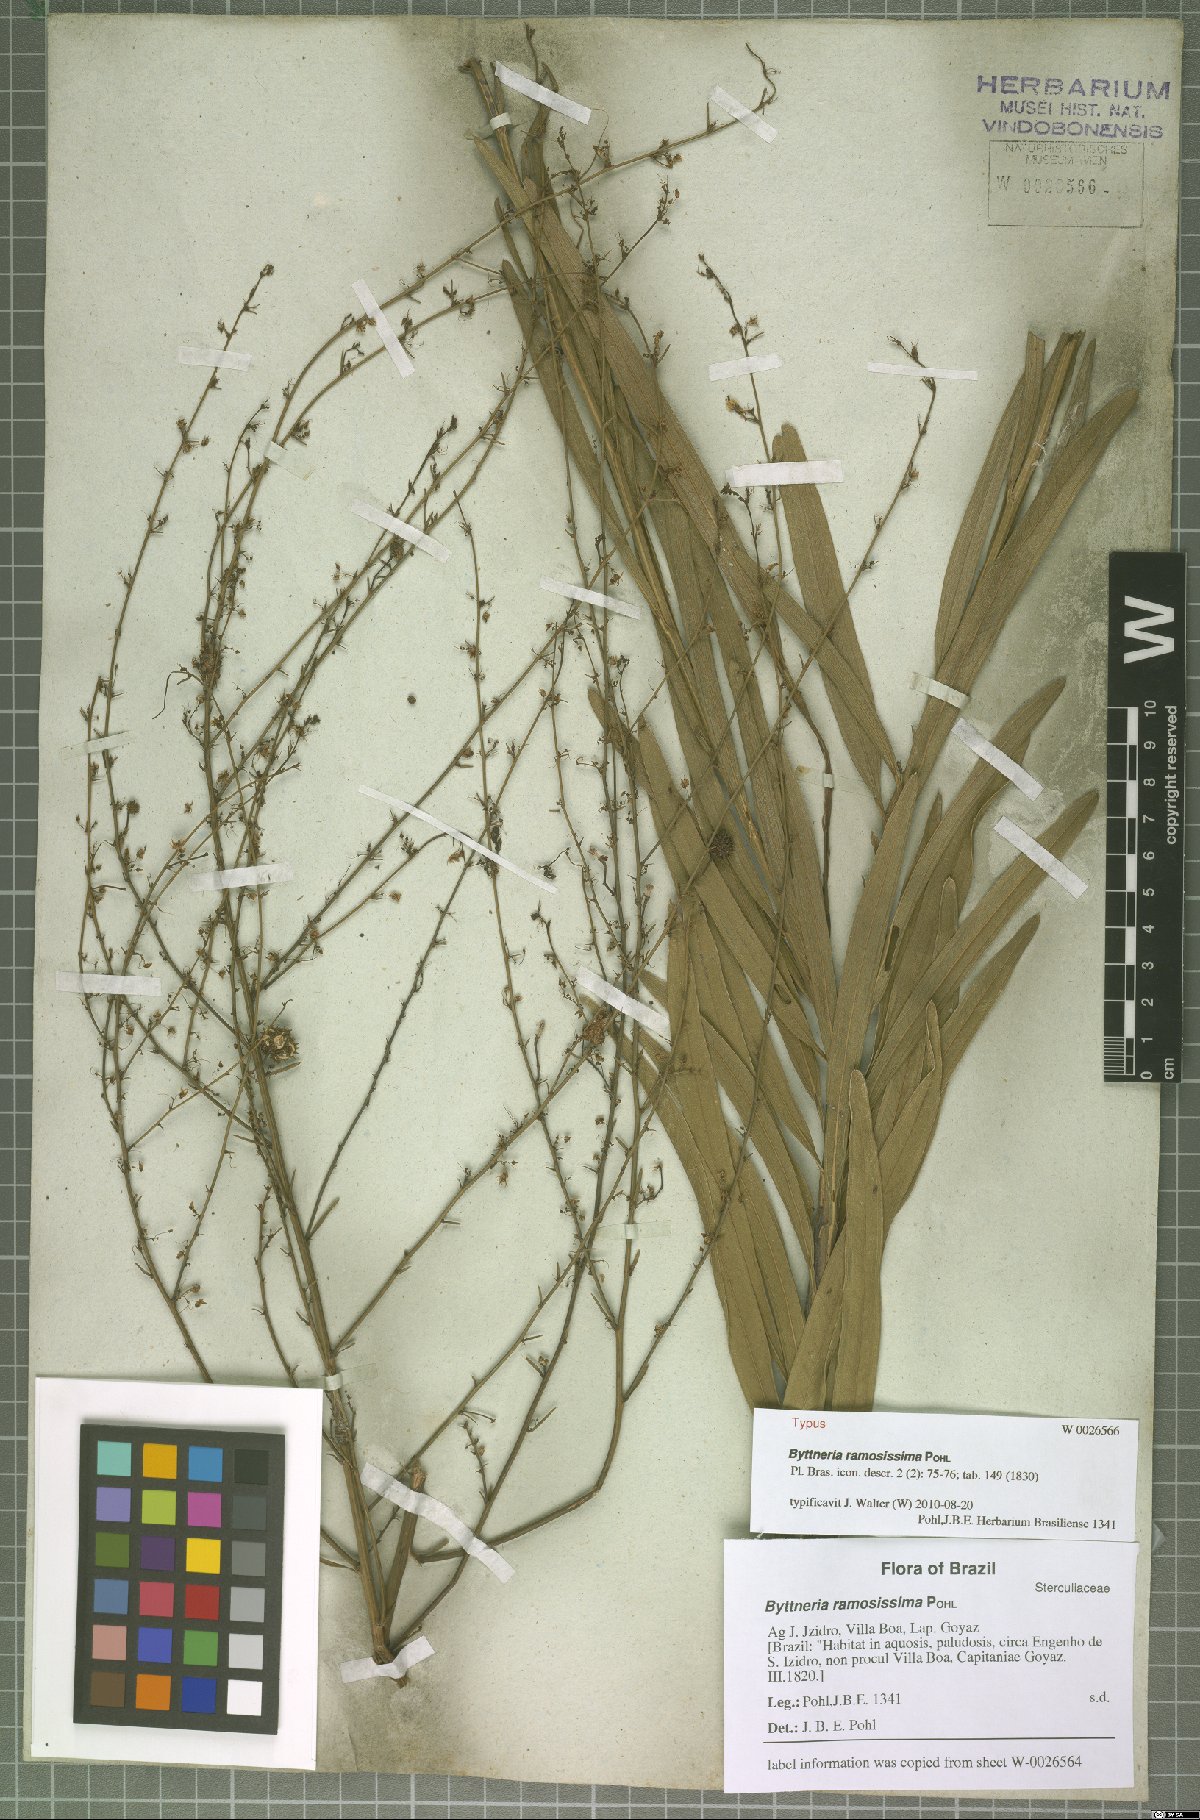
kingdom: Plantae
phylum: Tracheophyta
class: Magnoliopsida
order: Malvales
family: Malvaceae
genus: Byttneria
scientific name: Byttneria ramosissima
